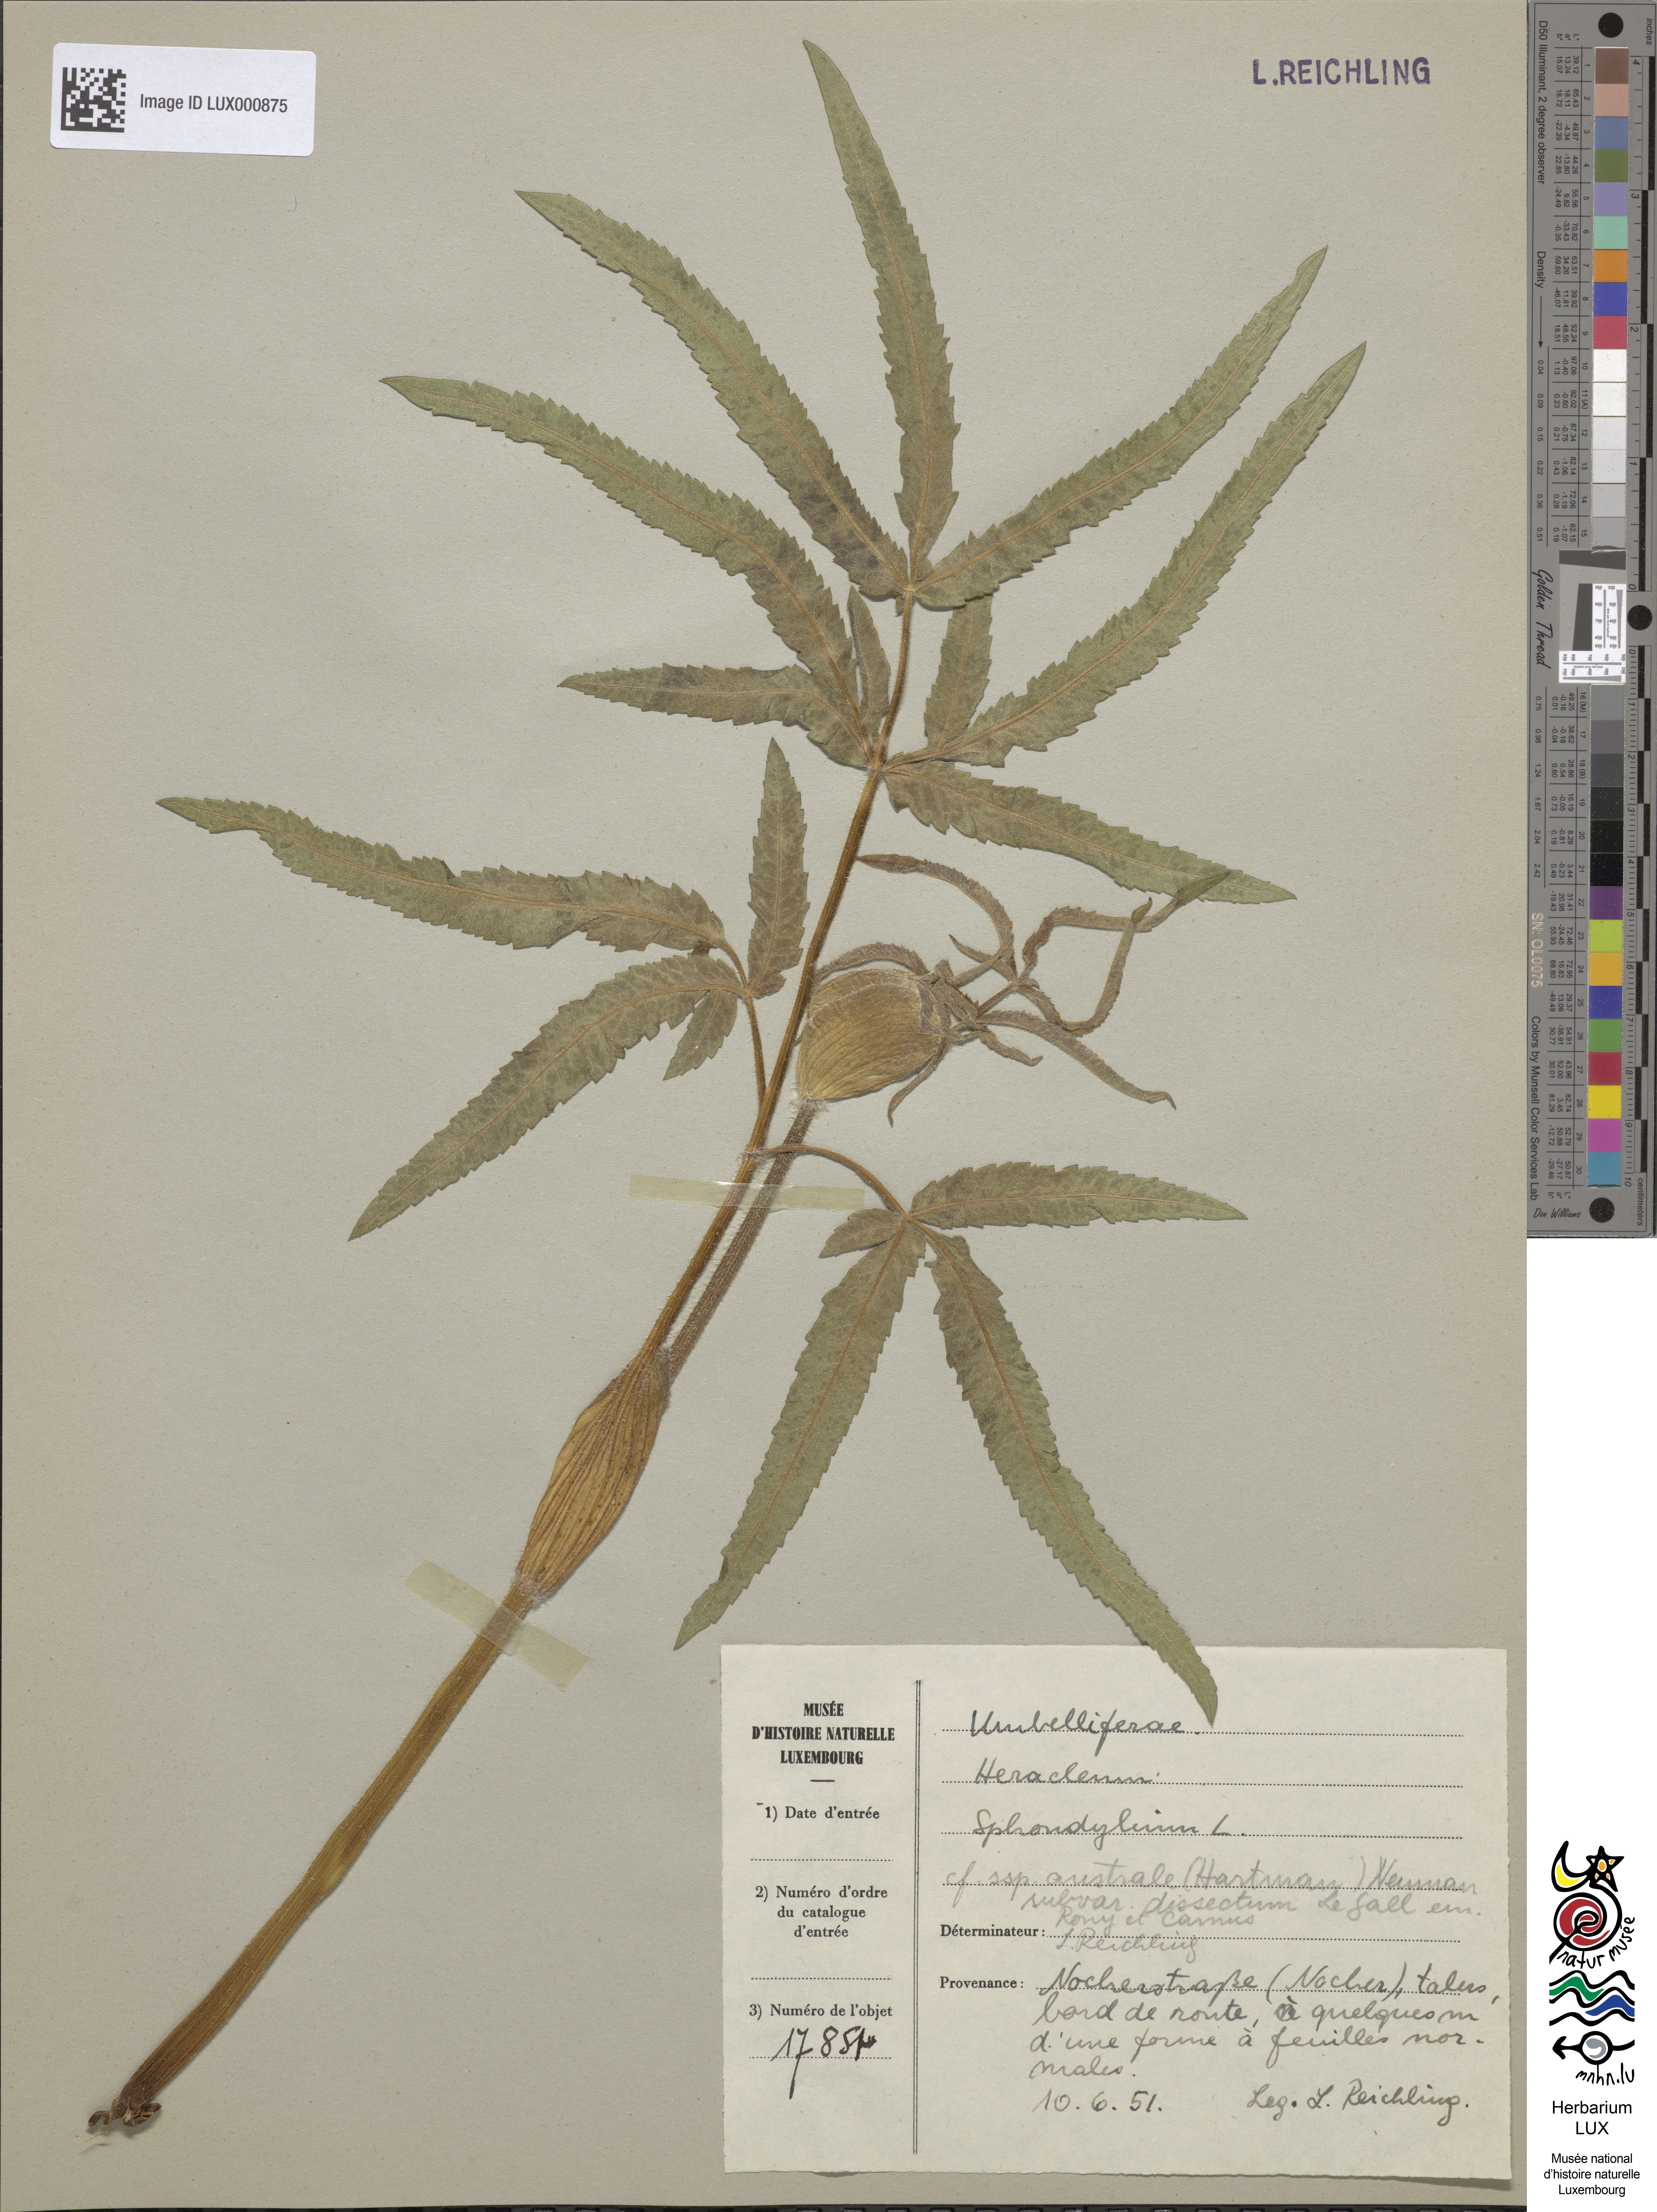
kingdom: Plantae
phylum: Tracheophyta
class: Magnoliopsida
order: Apiales
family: Apiaceae
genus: Heracleum
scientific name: Heracleum sphondylium
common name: Hogweed
